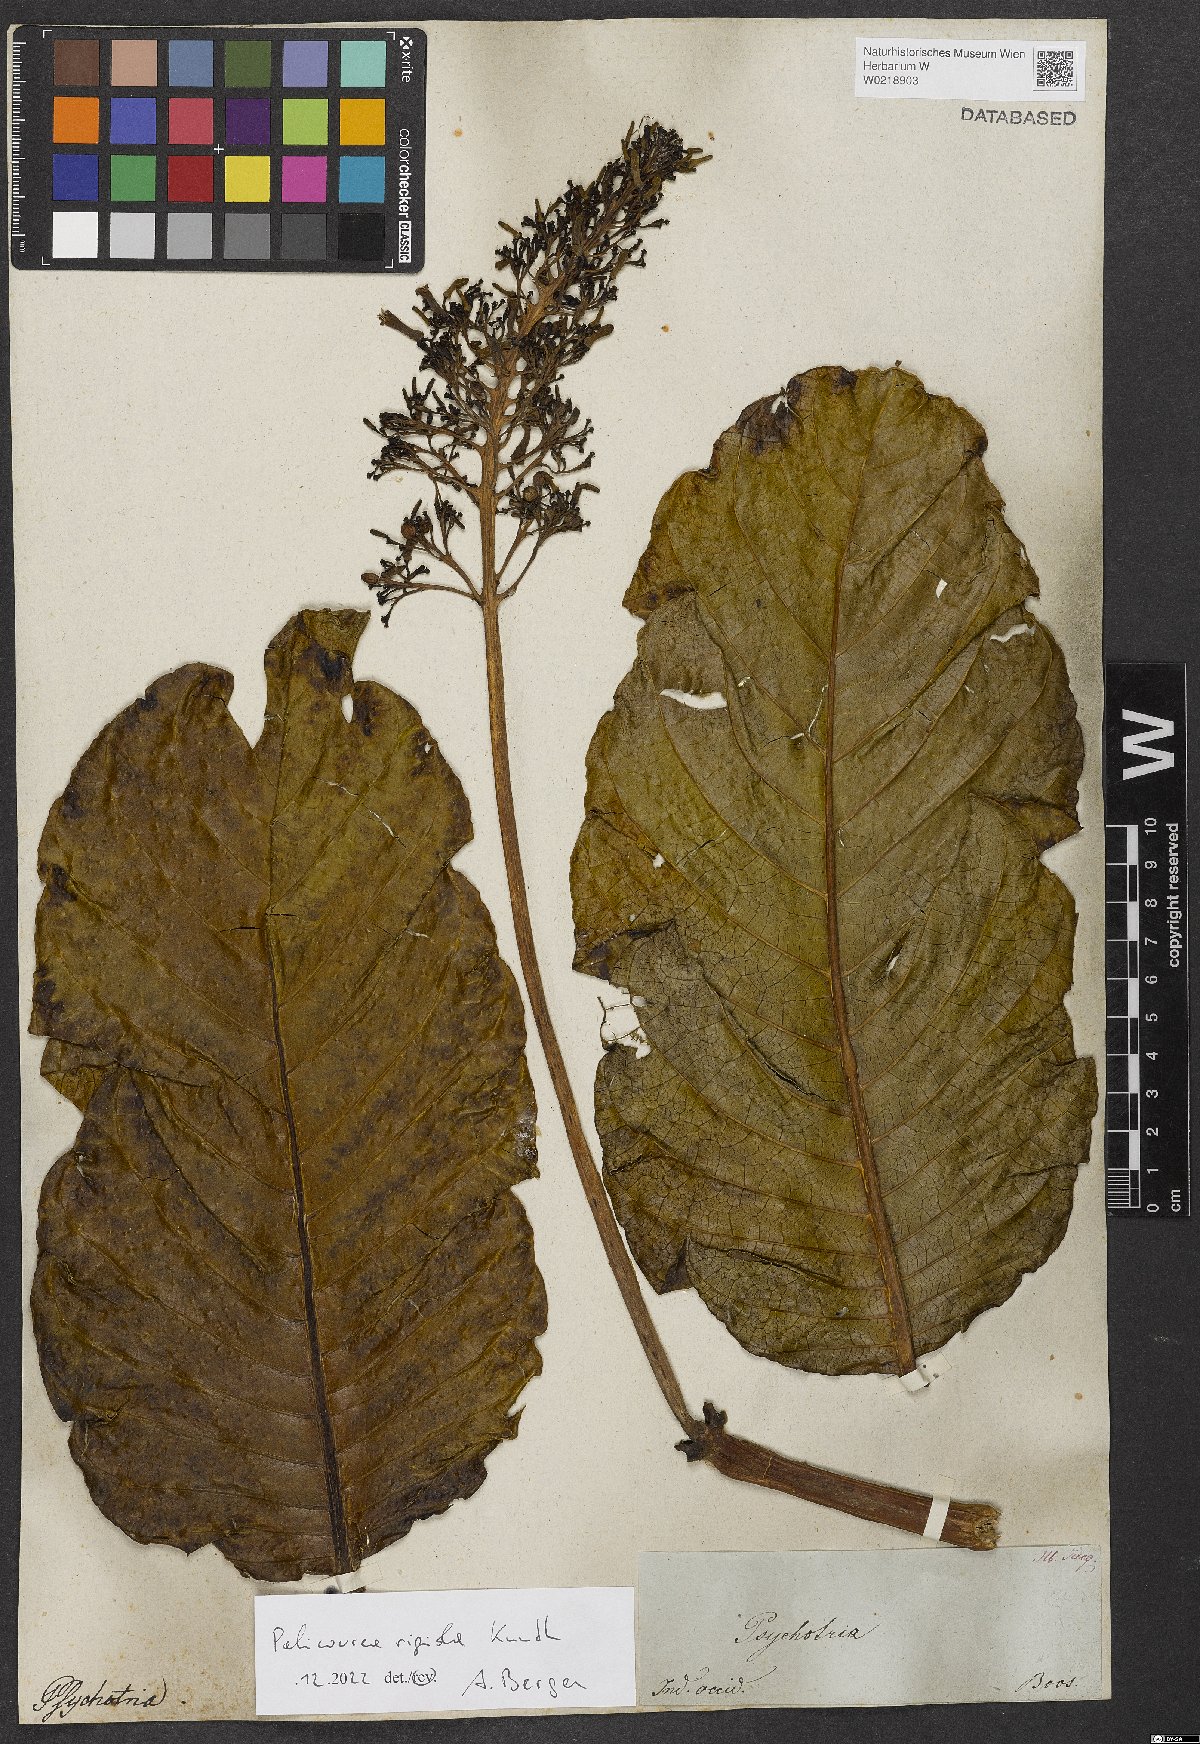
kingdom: Plantae
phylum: Tracheophyta
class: Magnoliopsida
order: Gentianales
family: Rubiaceae
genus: Palicourea
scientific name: Palicourea rigida
